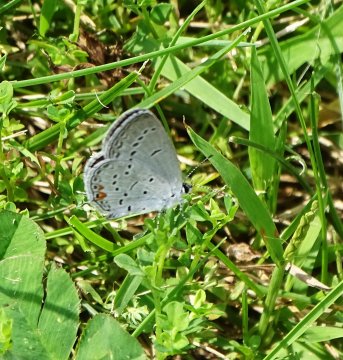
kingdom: Animalia
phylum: Arthropoda
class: Insecta
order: Lepidoptera
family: Lycaenidae
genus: Elkalyce
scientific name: Elkalyce comyntas
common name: Eastern Tailed-Blue
